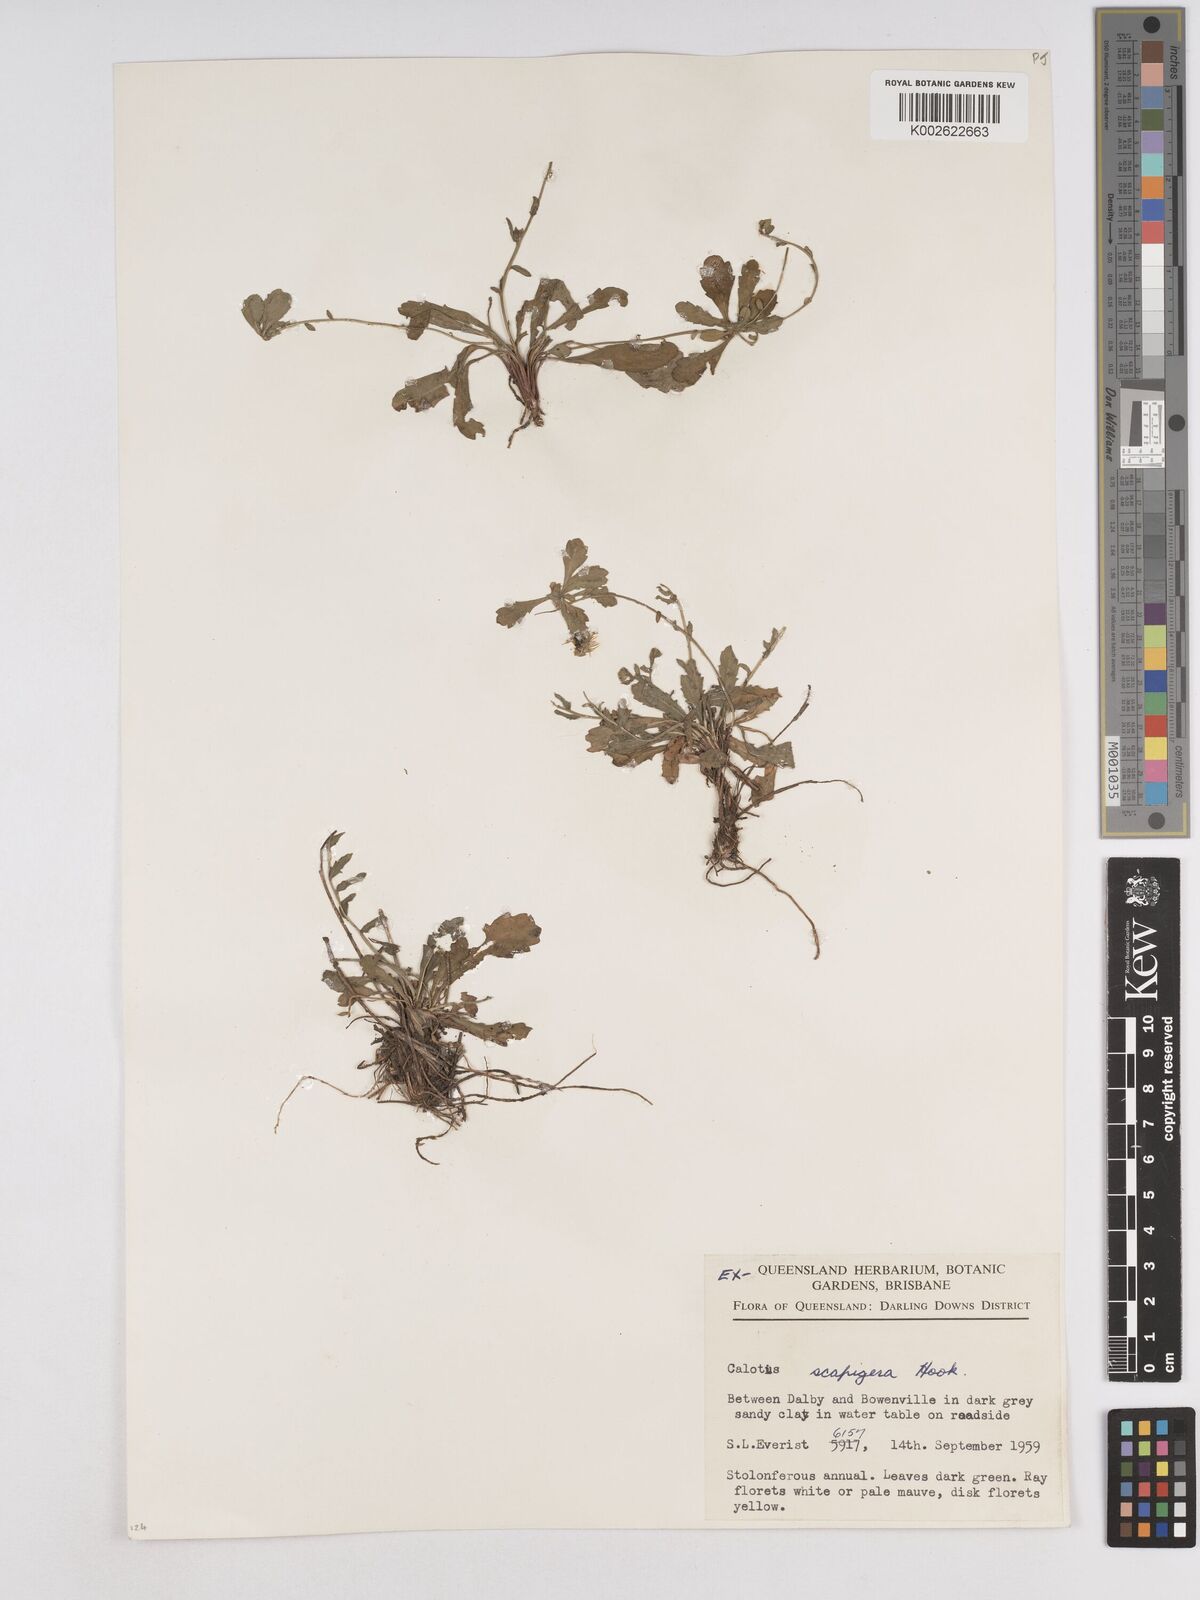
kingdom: Plantae
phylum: Tracheophyta
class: Magnoliopsida
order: Asterales
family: Asteraceae
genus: Calotis
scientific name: Calotis scapigera
